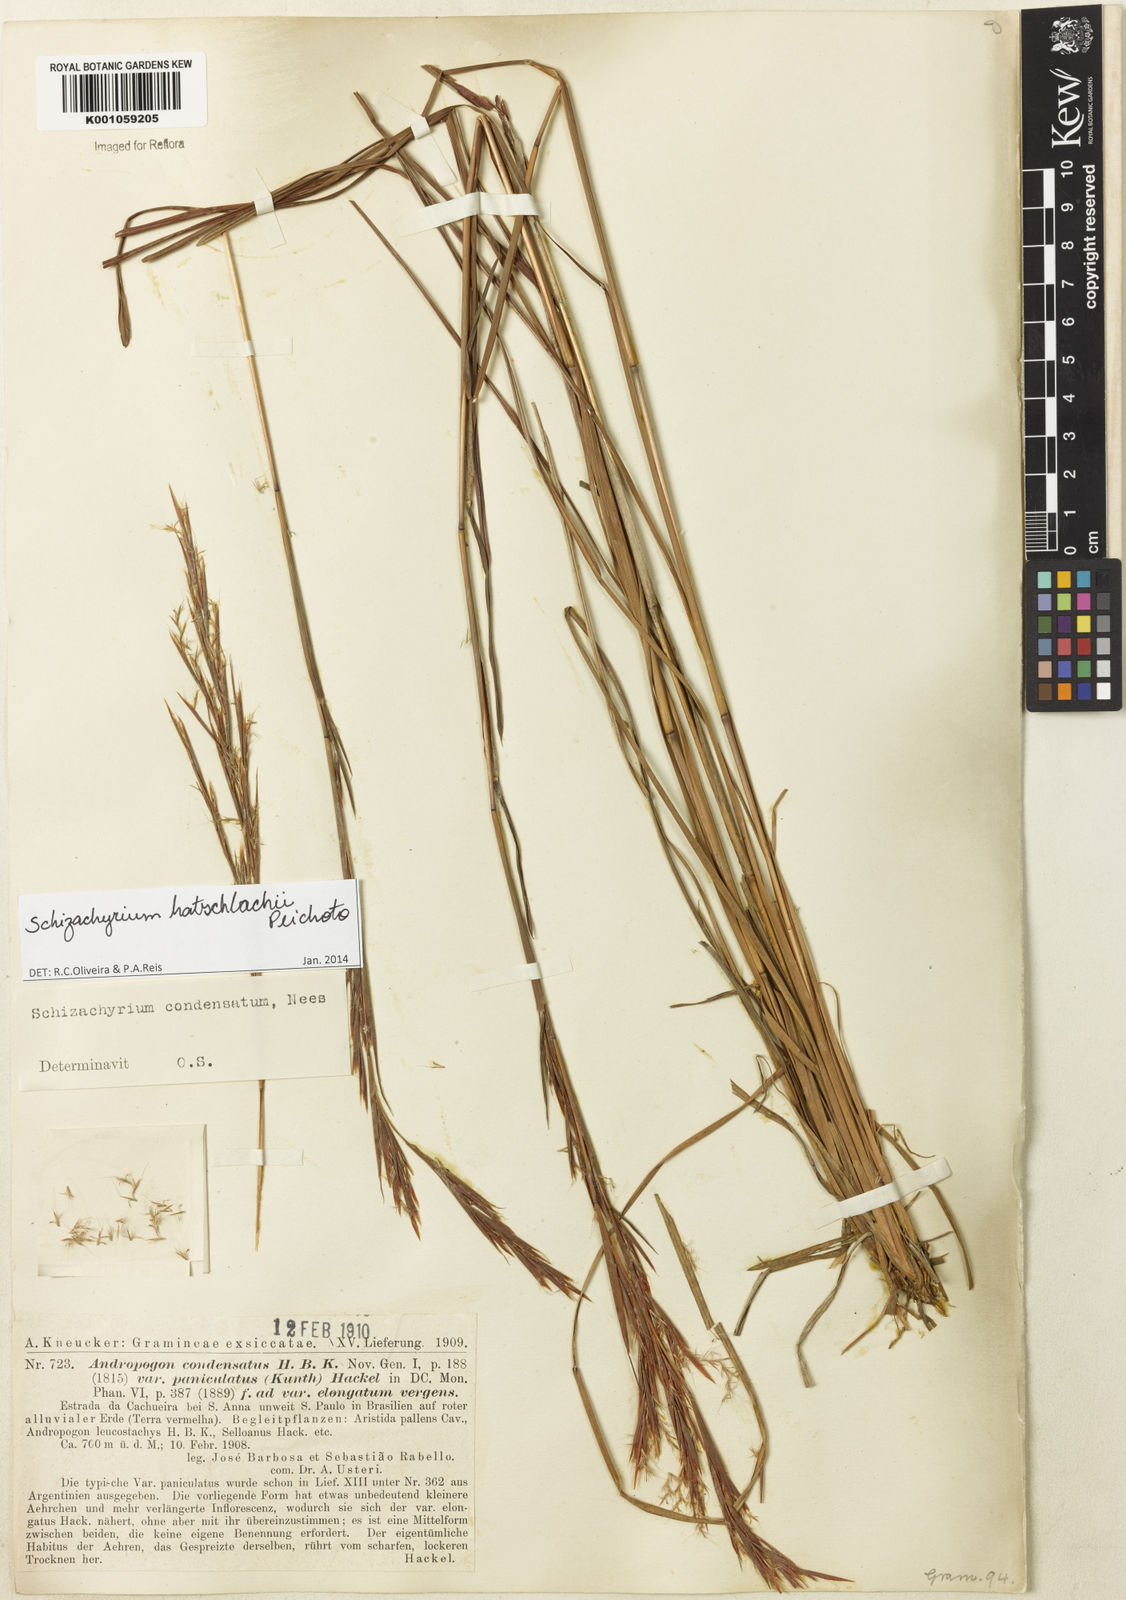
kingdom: Plantae
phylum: Tracheophyta
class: Liliopsida
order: Poales
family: Poaceae
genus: Schizachyrium
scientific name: Schizachyrium hatschbachii
